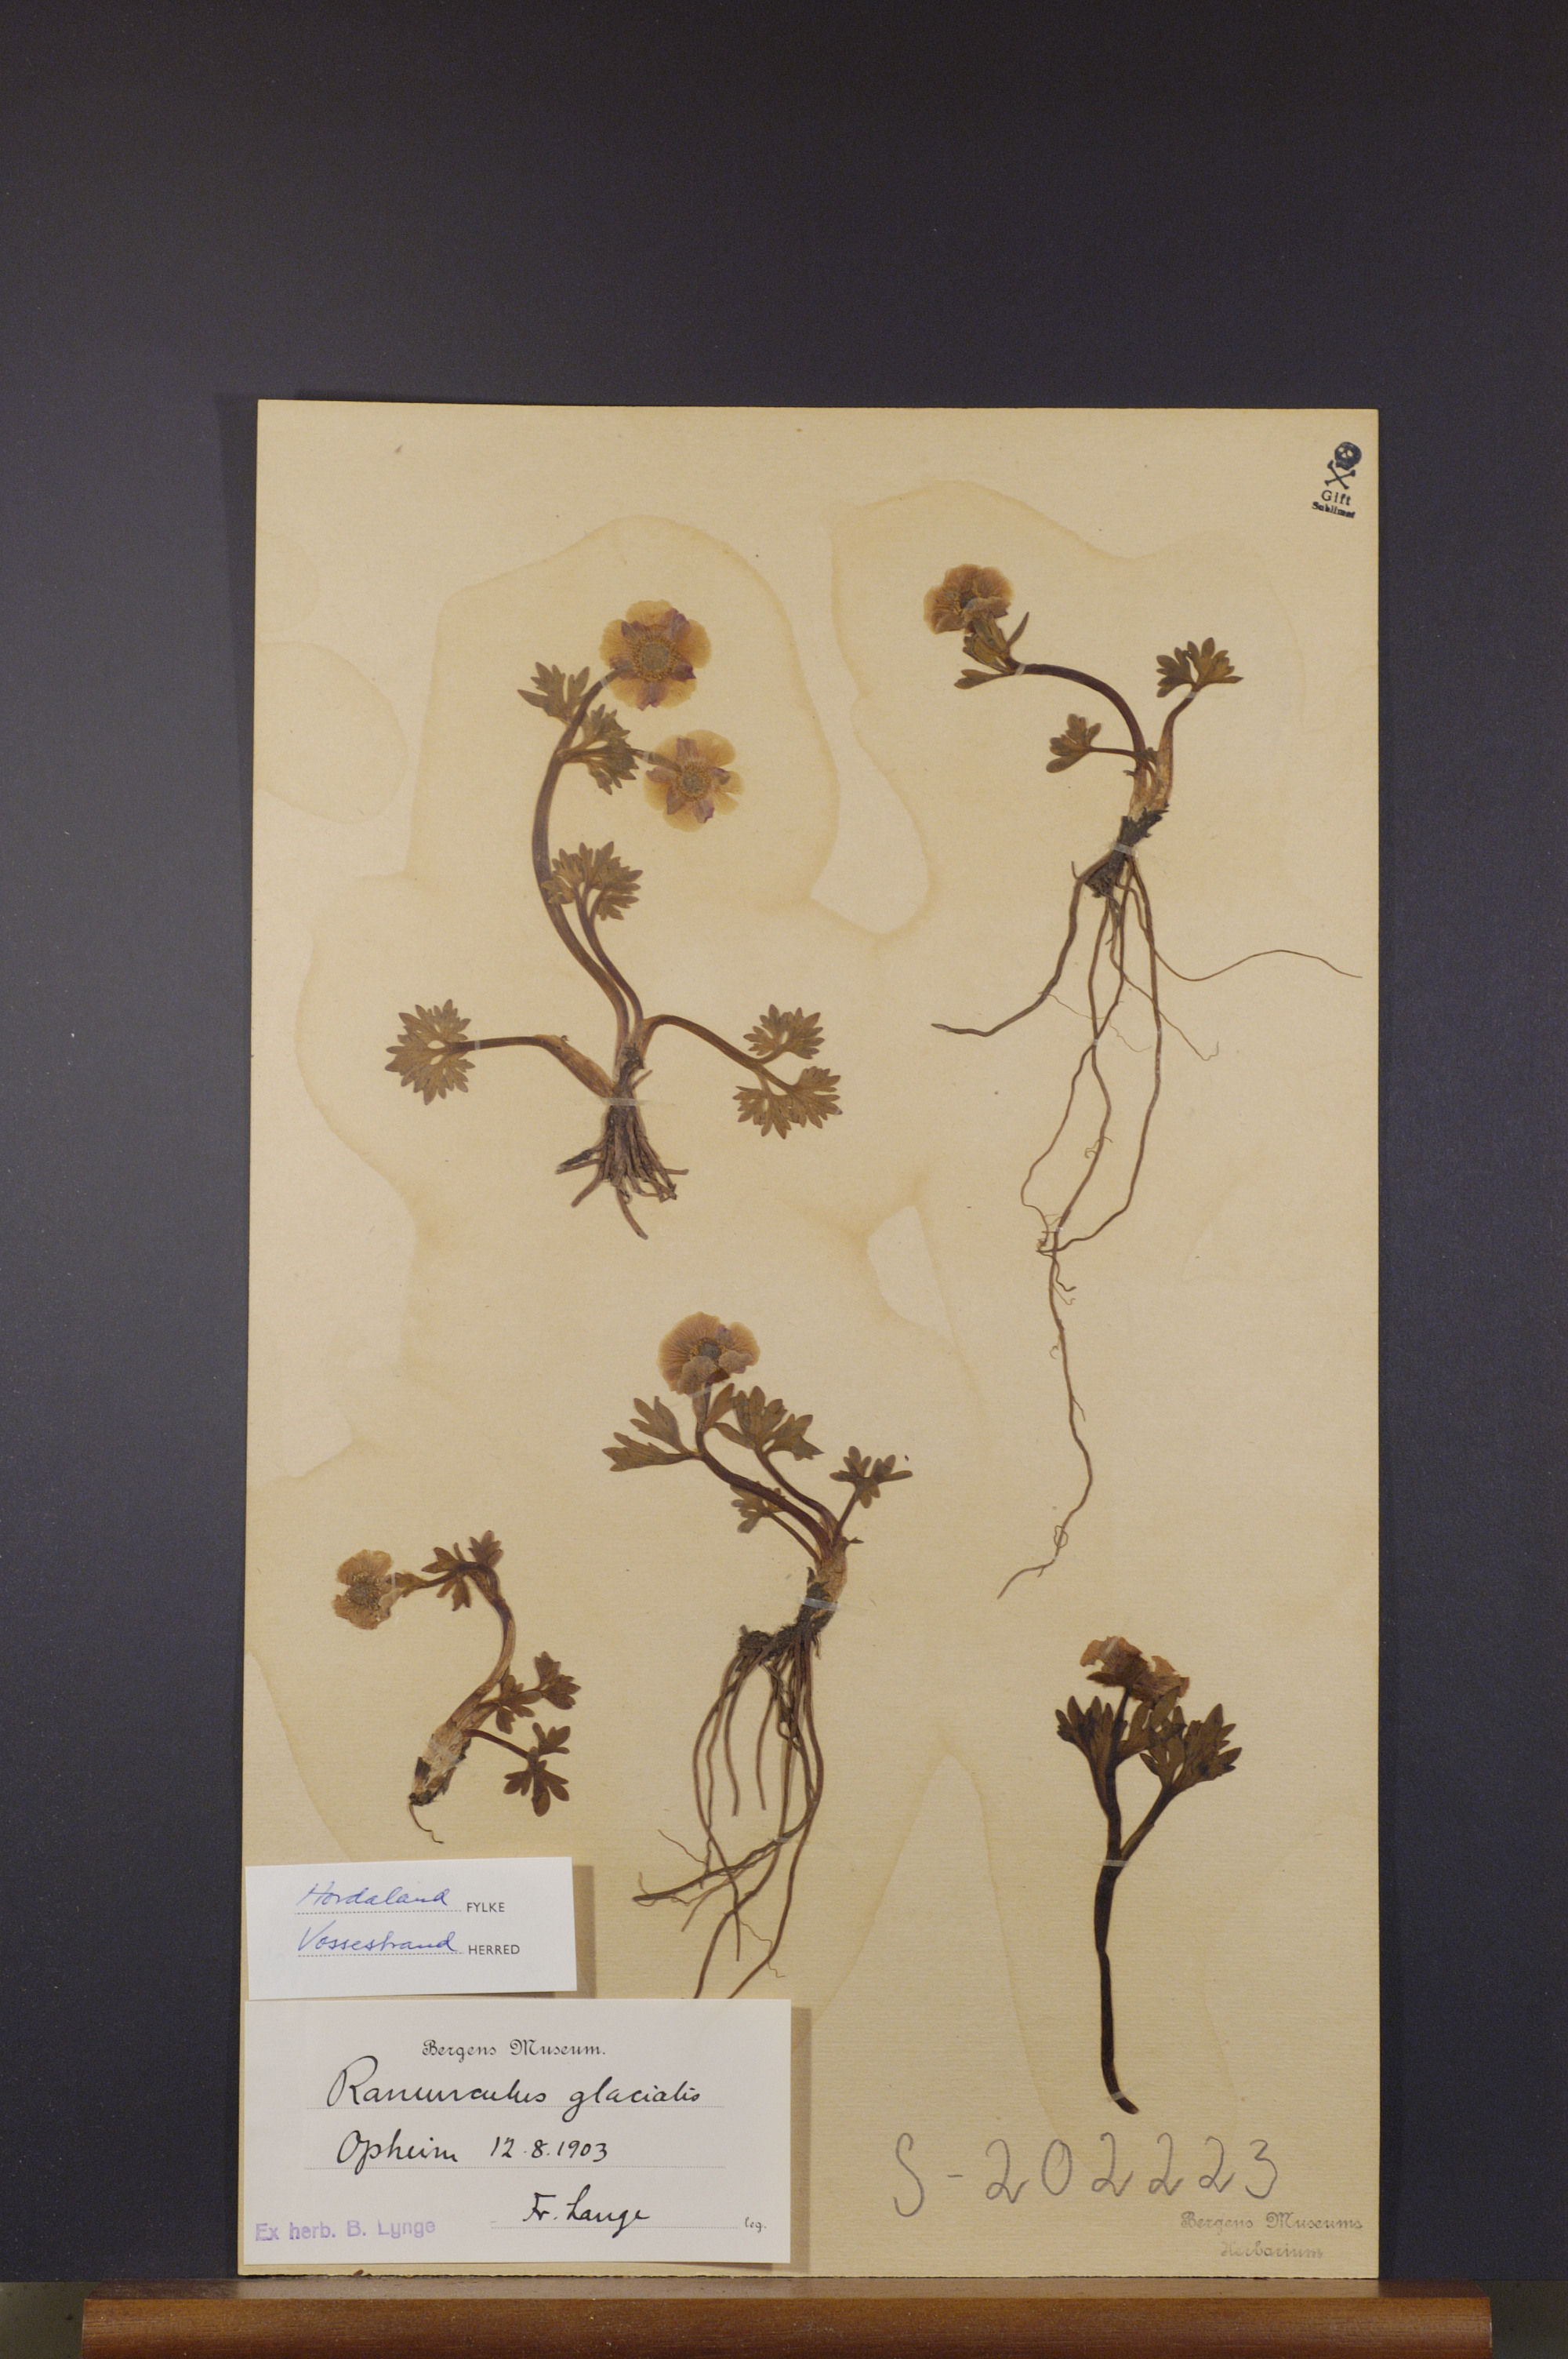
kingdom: Plantae
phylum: Tracheophyta
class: Magnoliopsida
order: Ranunculales
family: Ranunculaceae
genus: Ranunculus
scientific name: Ranunculus glacialis
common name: Glacier buttercup
